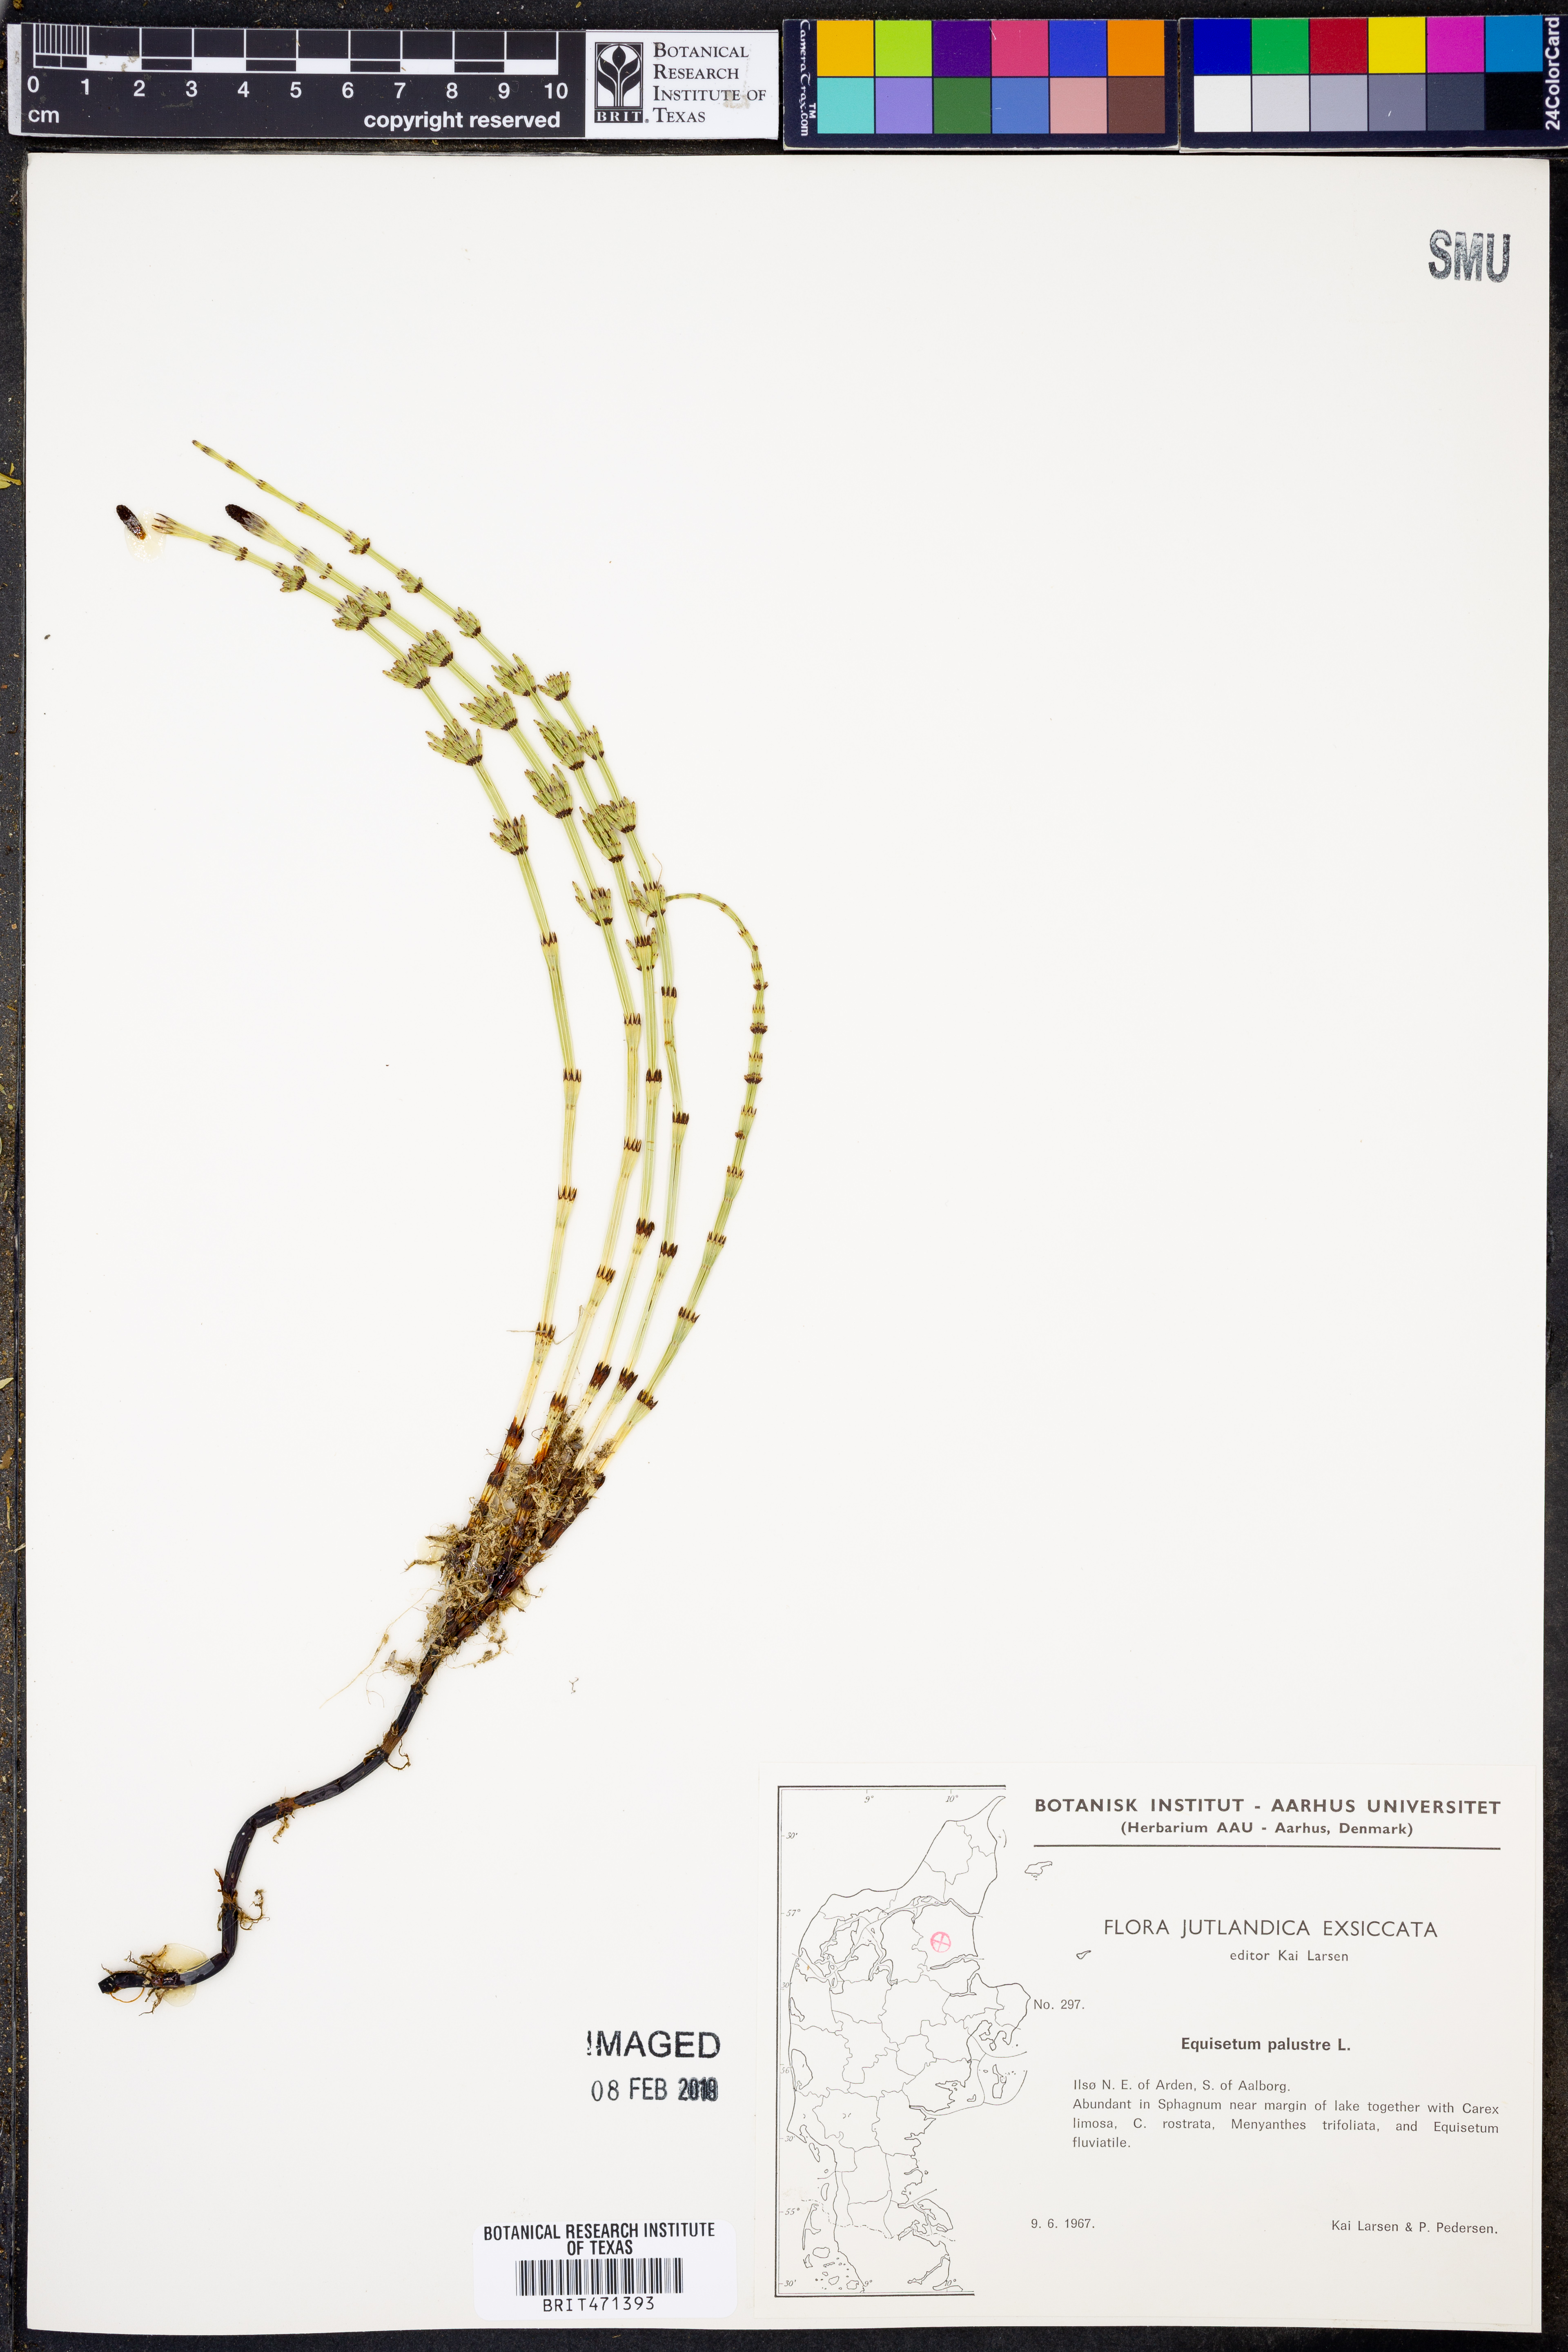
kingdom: Plantae
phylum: Tracheophyta
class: Polypodiopsida
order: Equisetales
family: Equisetaceae
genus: Equisetum
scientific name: Equisetum palustre
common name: Marsh horsetail
